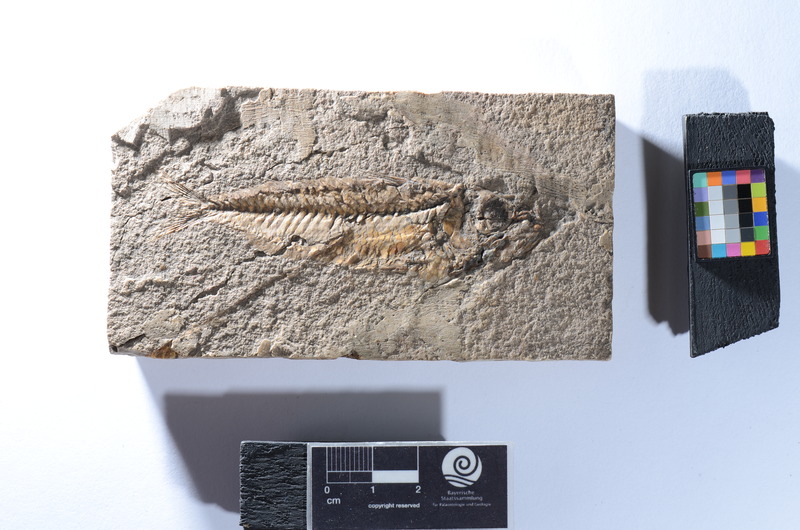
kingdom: Animalia
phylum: Chordata
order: Beryciformes
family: Holocentridae
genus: Berybolcensis
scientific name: Berybolcensis leptacanthus
